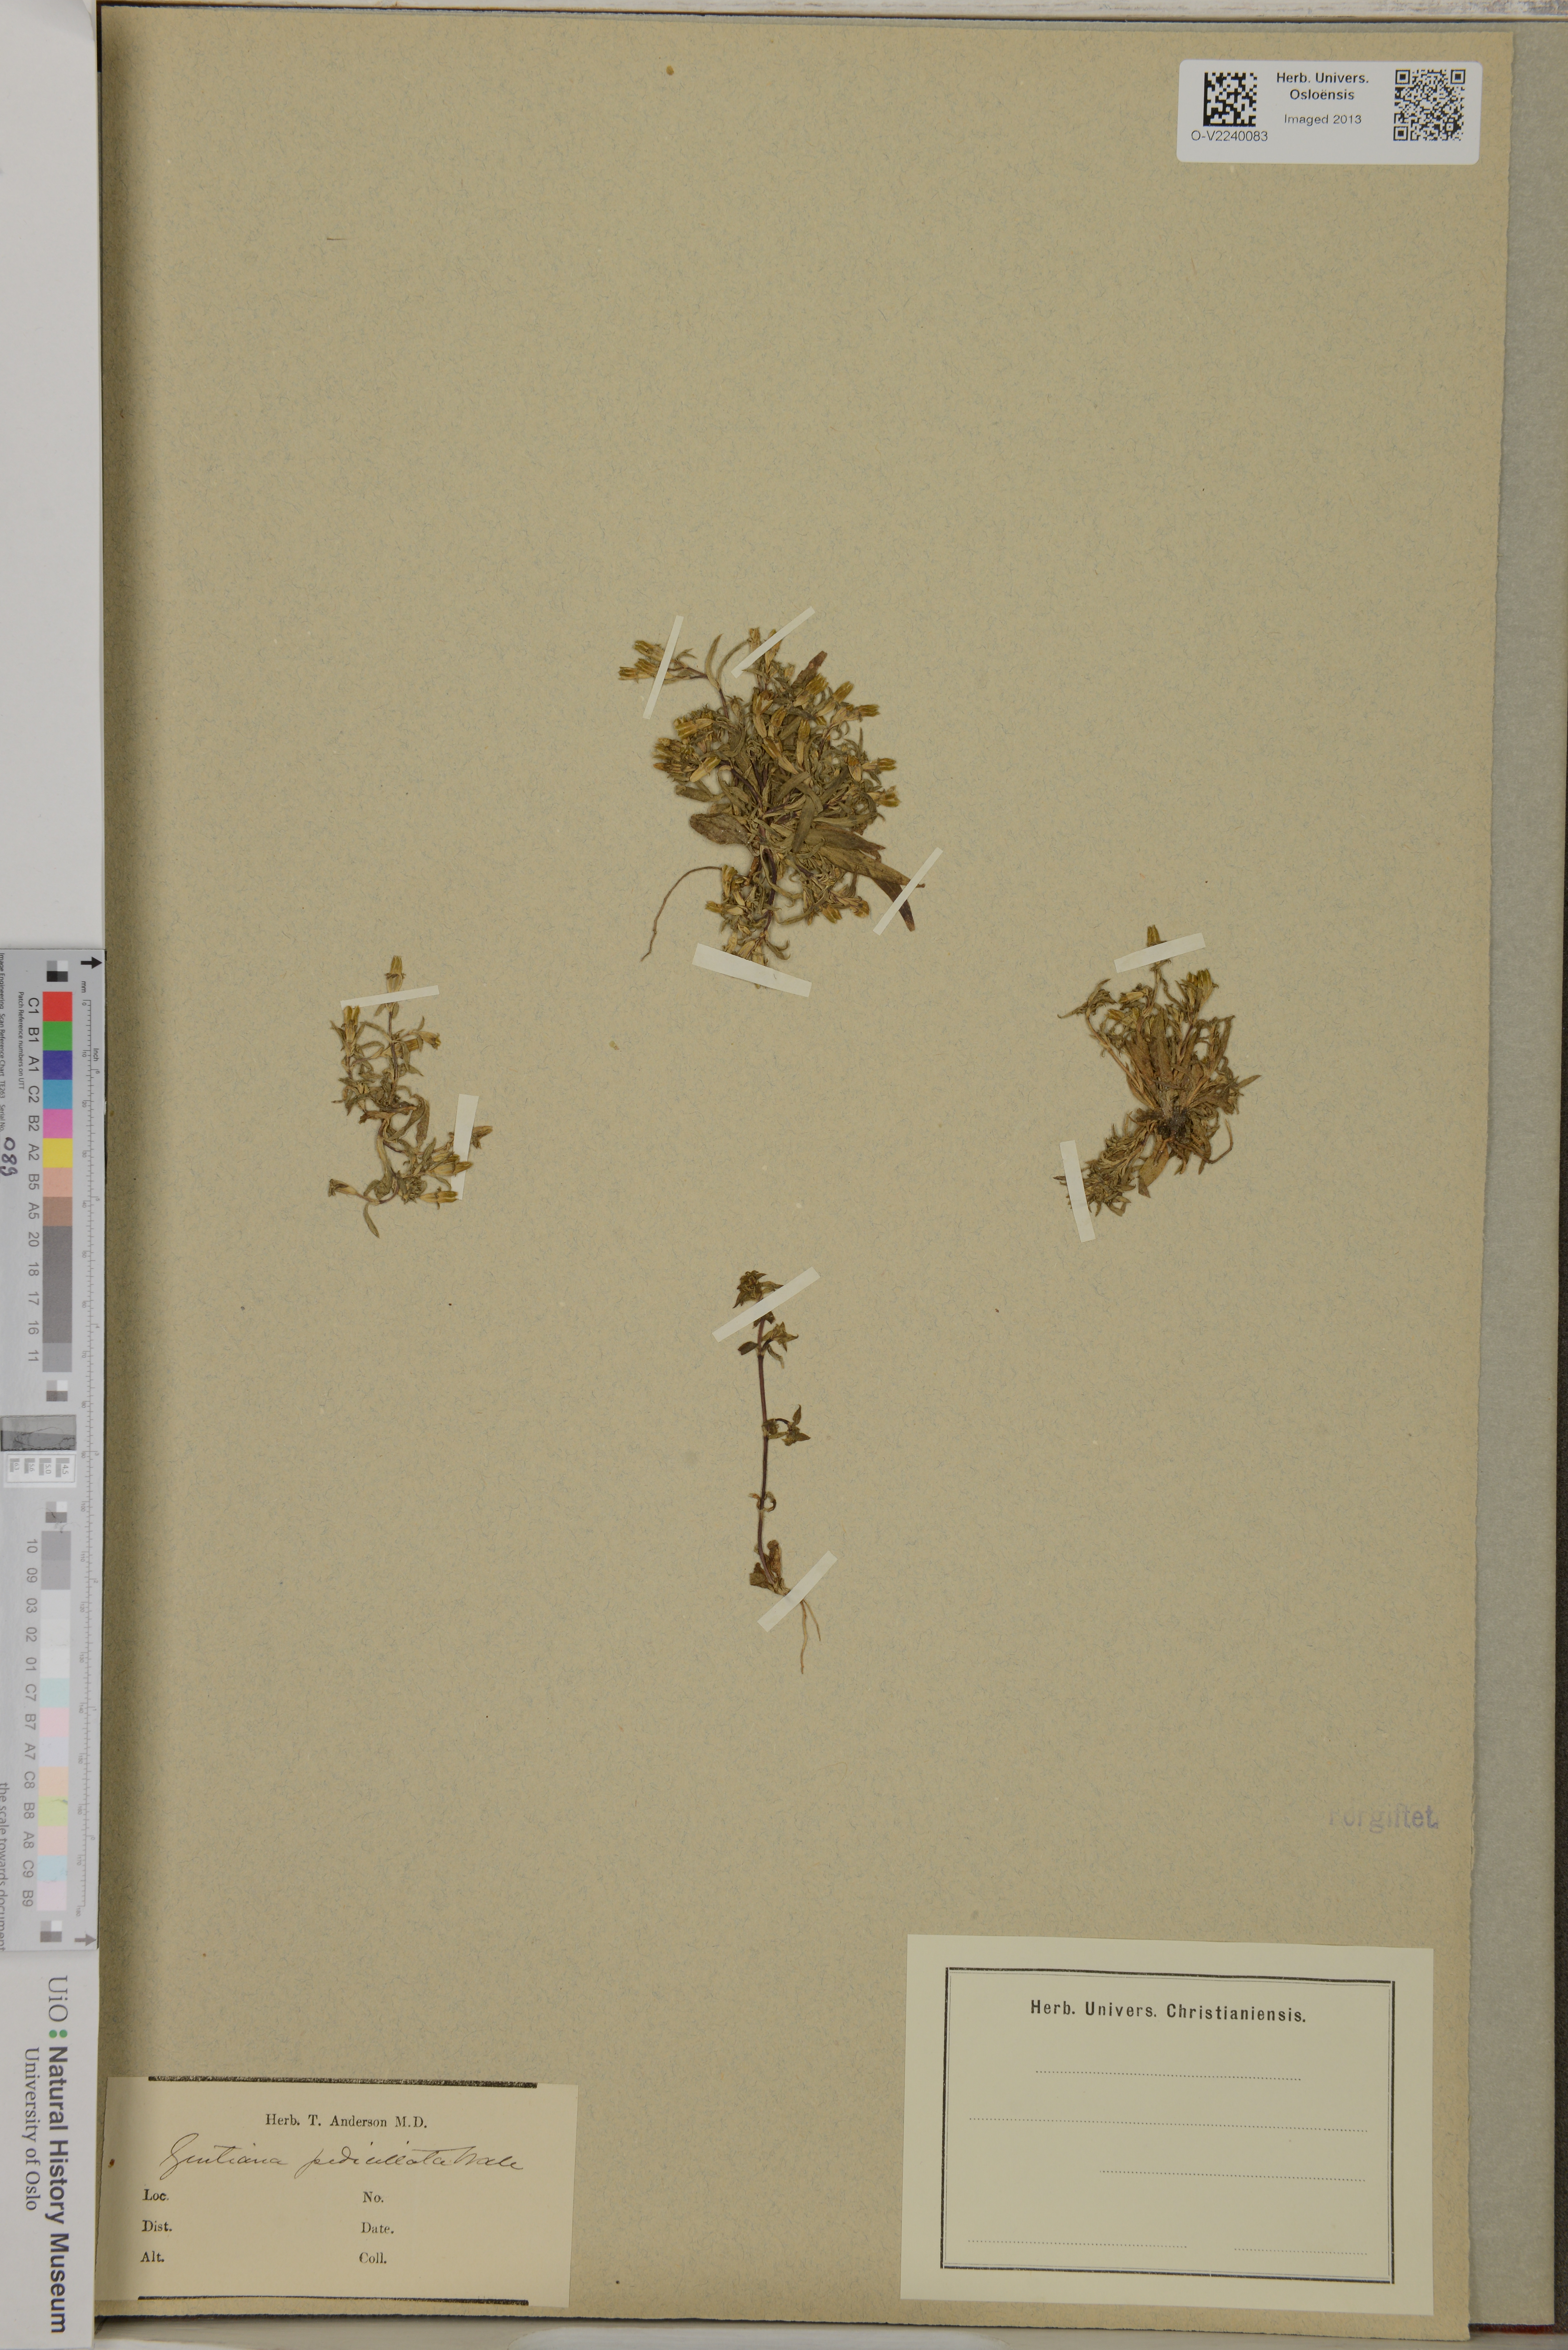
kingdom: Plantae
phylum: Tracheophyta
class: Magnoliopsida
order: Gentianales
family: Gentianaceae
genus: Gentiana
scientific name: Gentiana pedicellata
